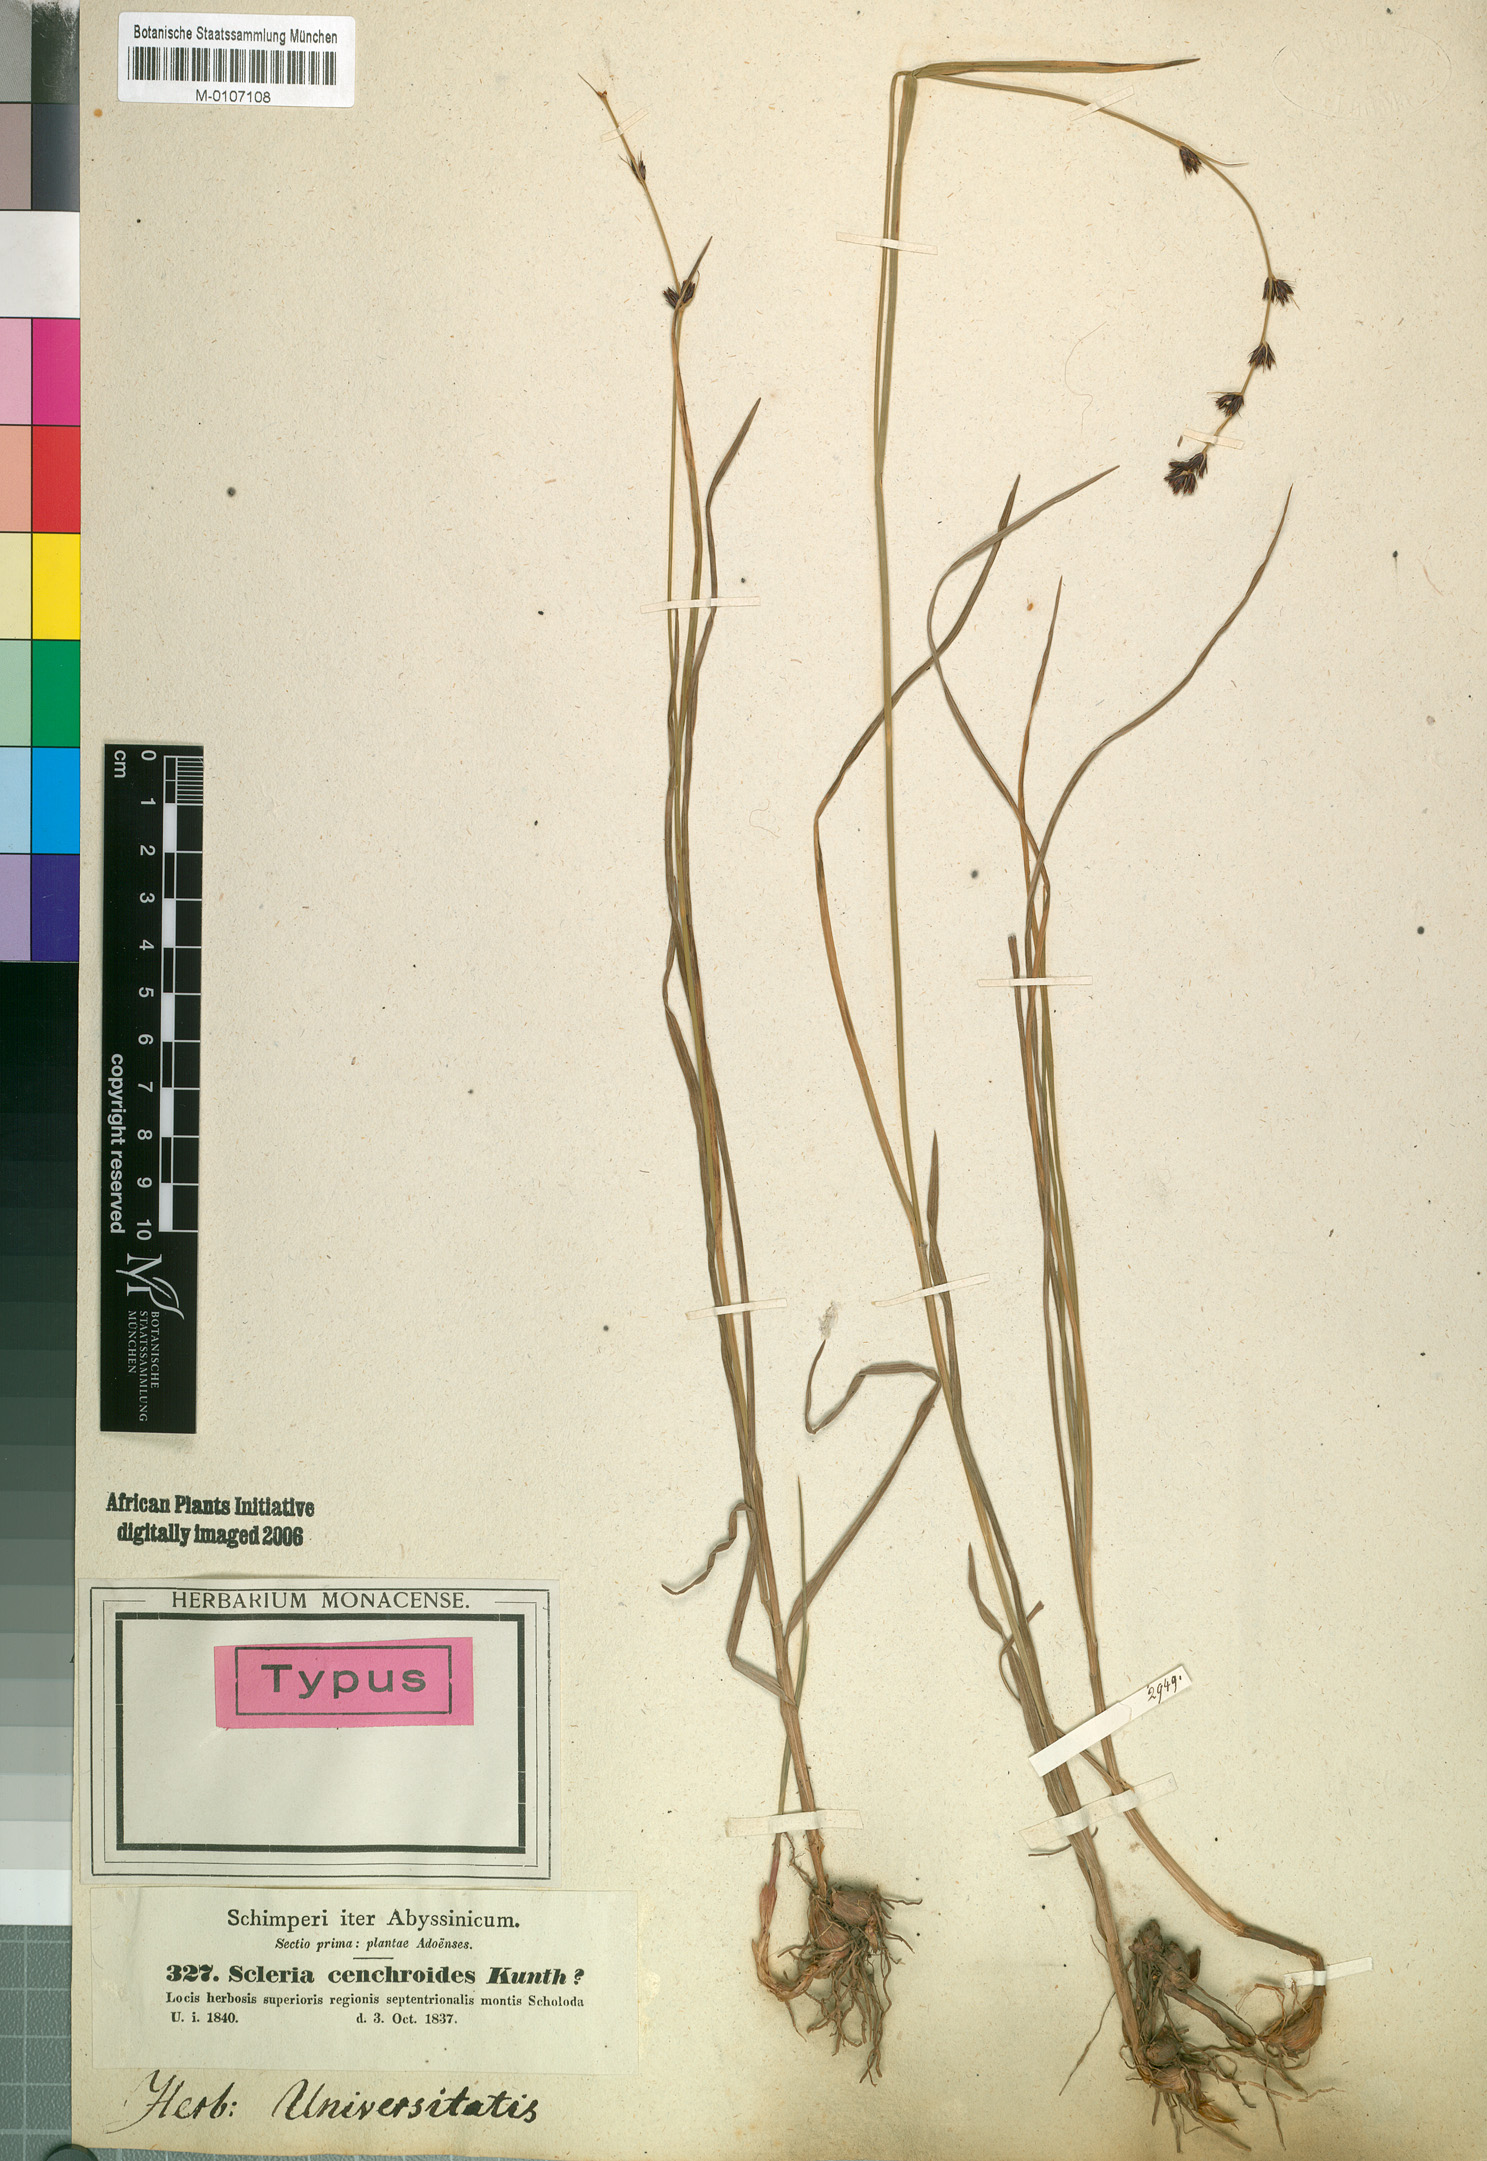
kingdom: Plantae
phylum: Tracheophyta
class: Liliopsida
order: Poales
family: Cyperaceae
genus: Scleria
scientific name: Scleria bulbifera
